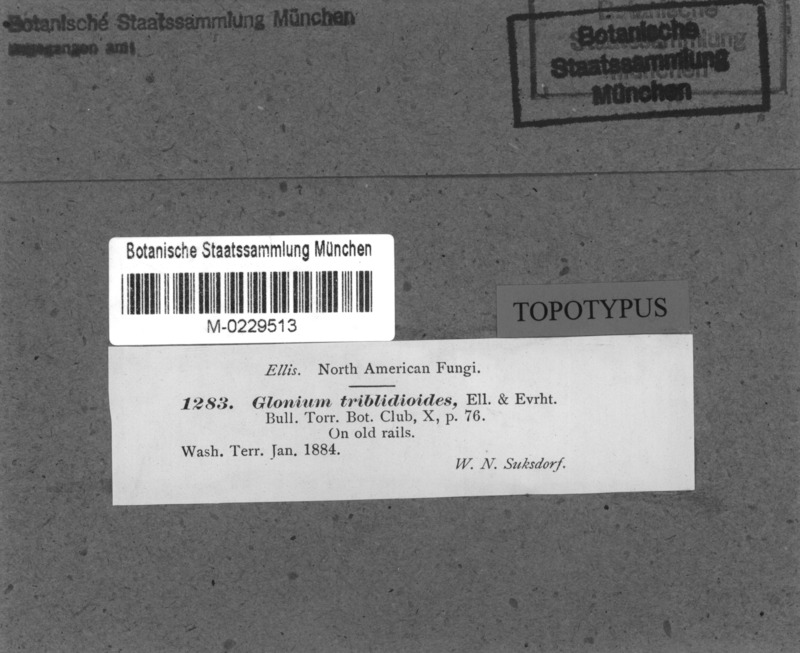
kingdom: Fungi
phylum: Ascomycota
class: Dothideomycetes
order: Mytilinidiales
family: Gloniaceae
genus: Glonium
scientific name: Glonium
